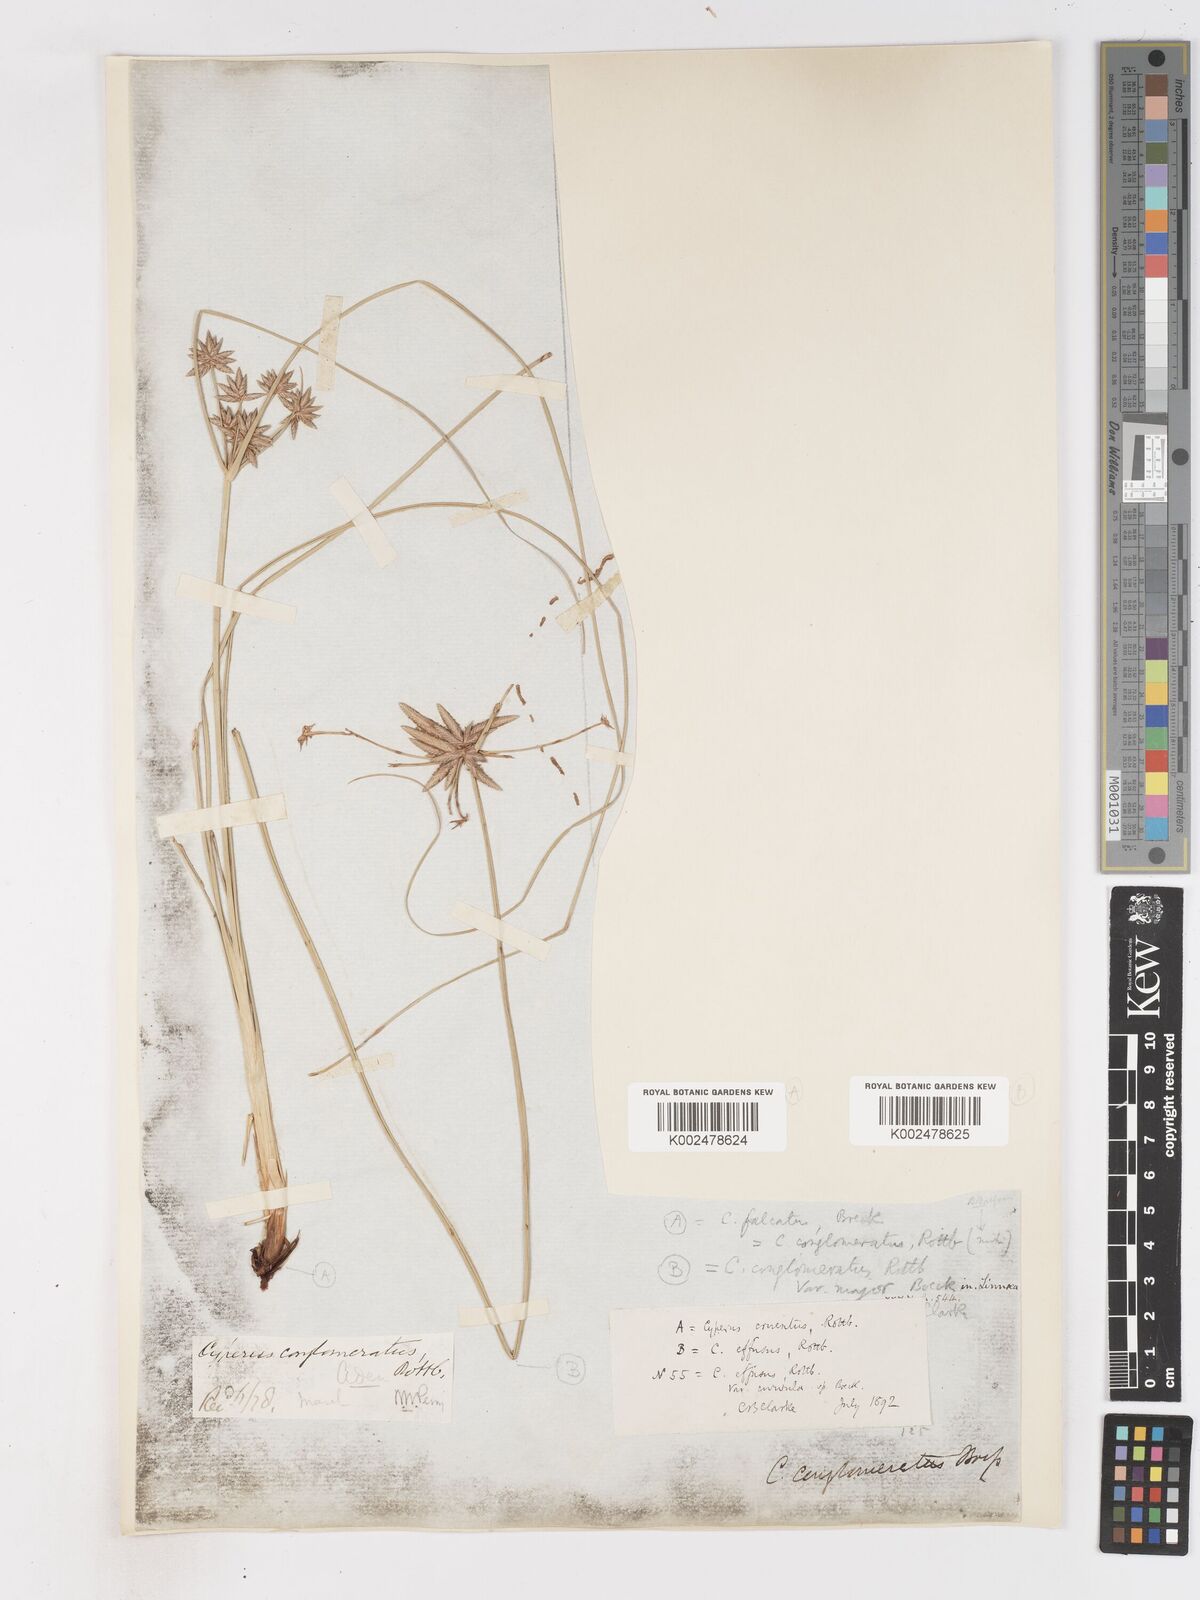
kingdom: Plantae
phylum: Tracheophyta
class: Liliopsida
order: Poales
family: Cyperaceae
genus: Cyperus
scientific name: Cyperus conglomeratus
